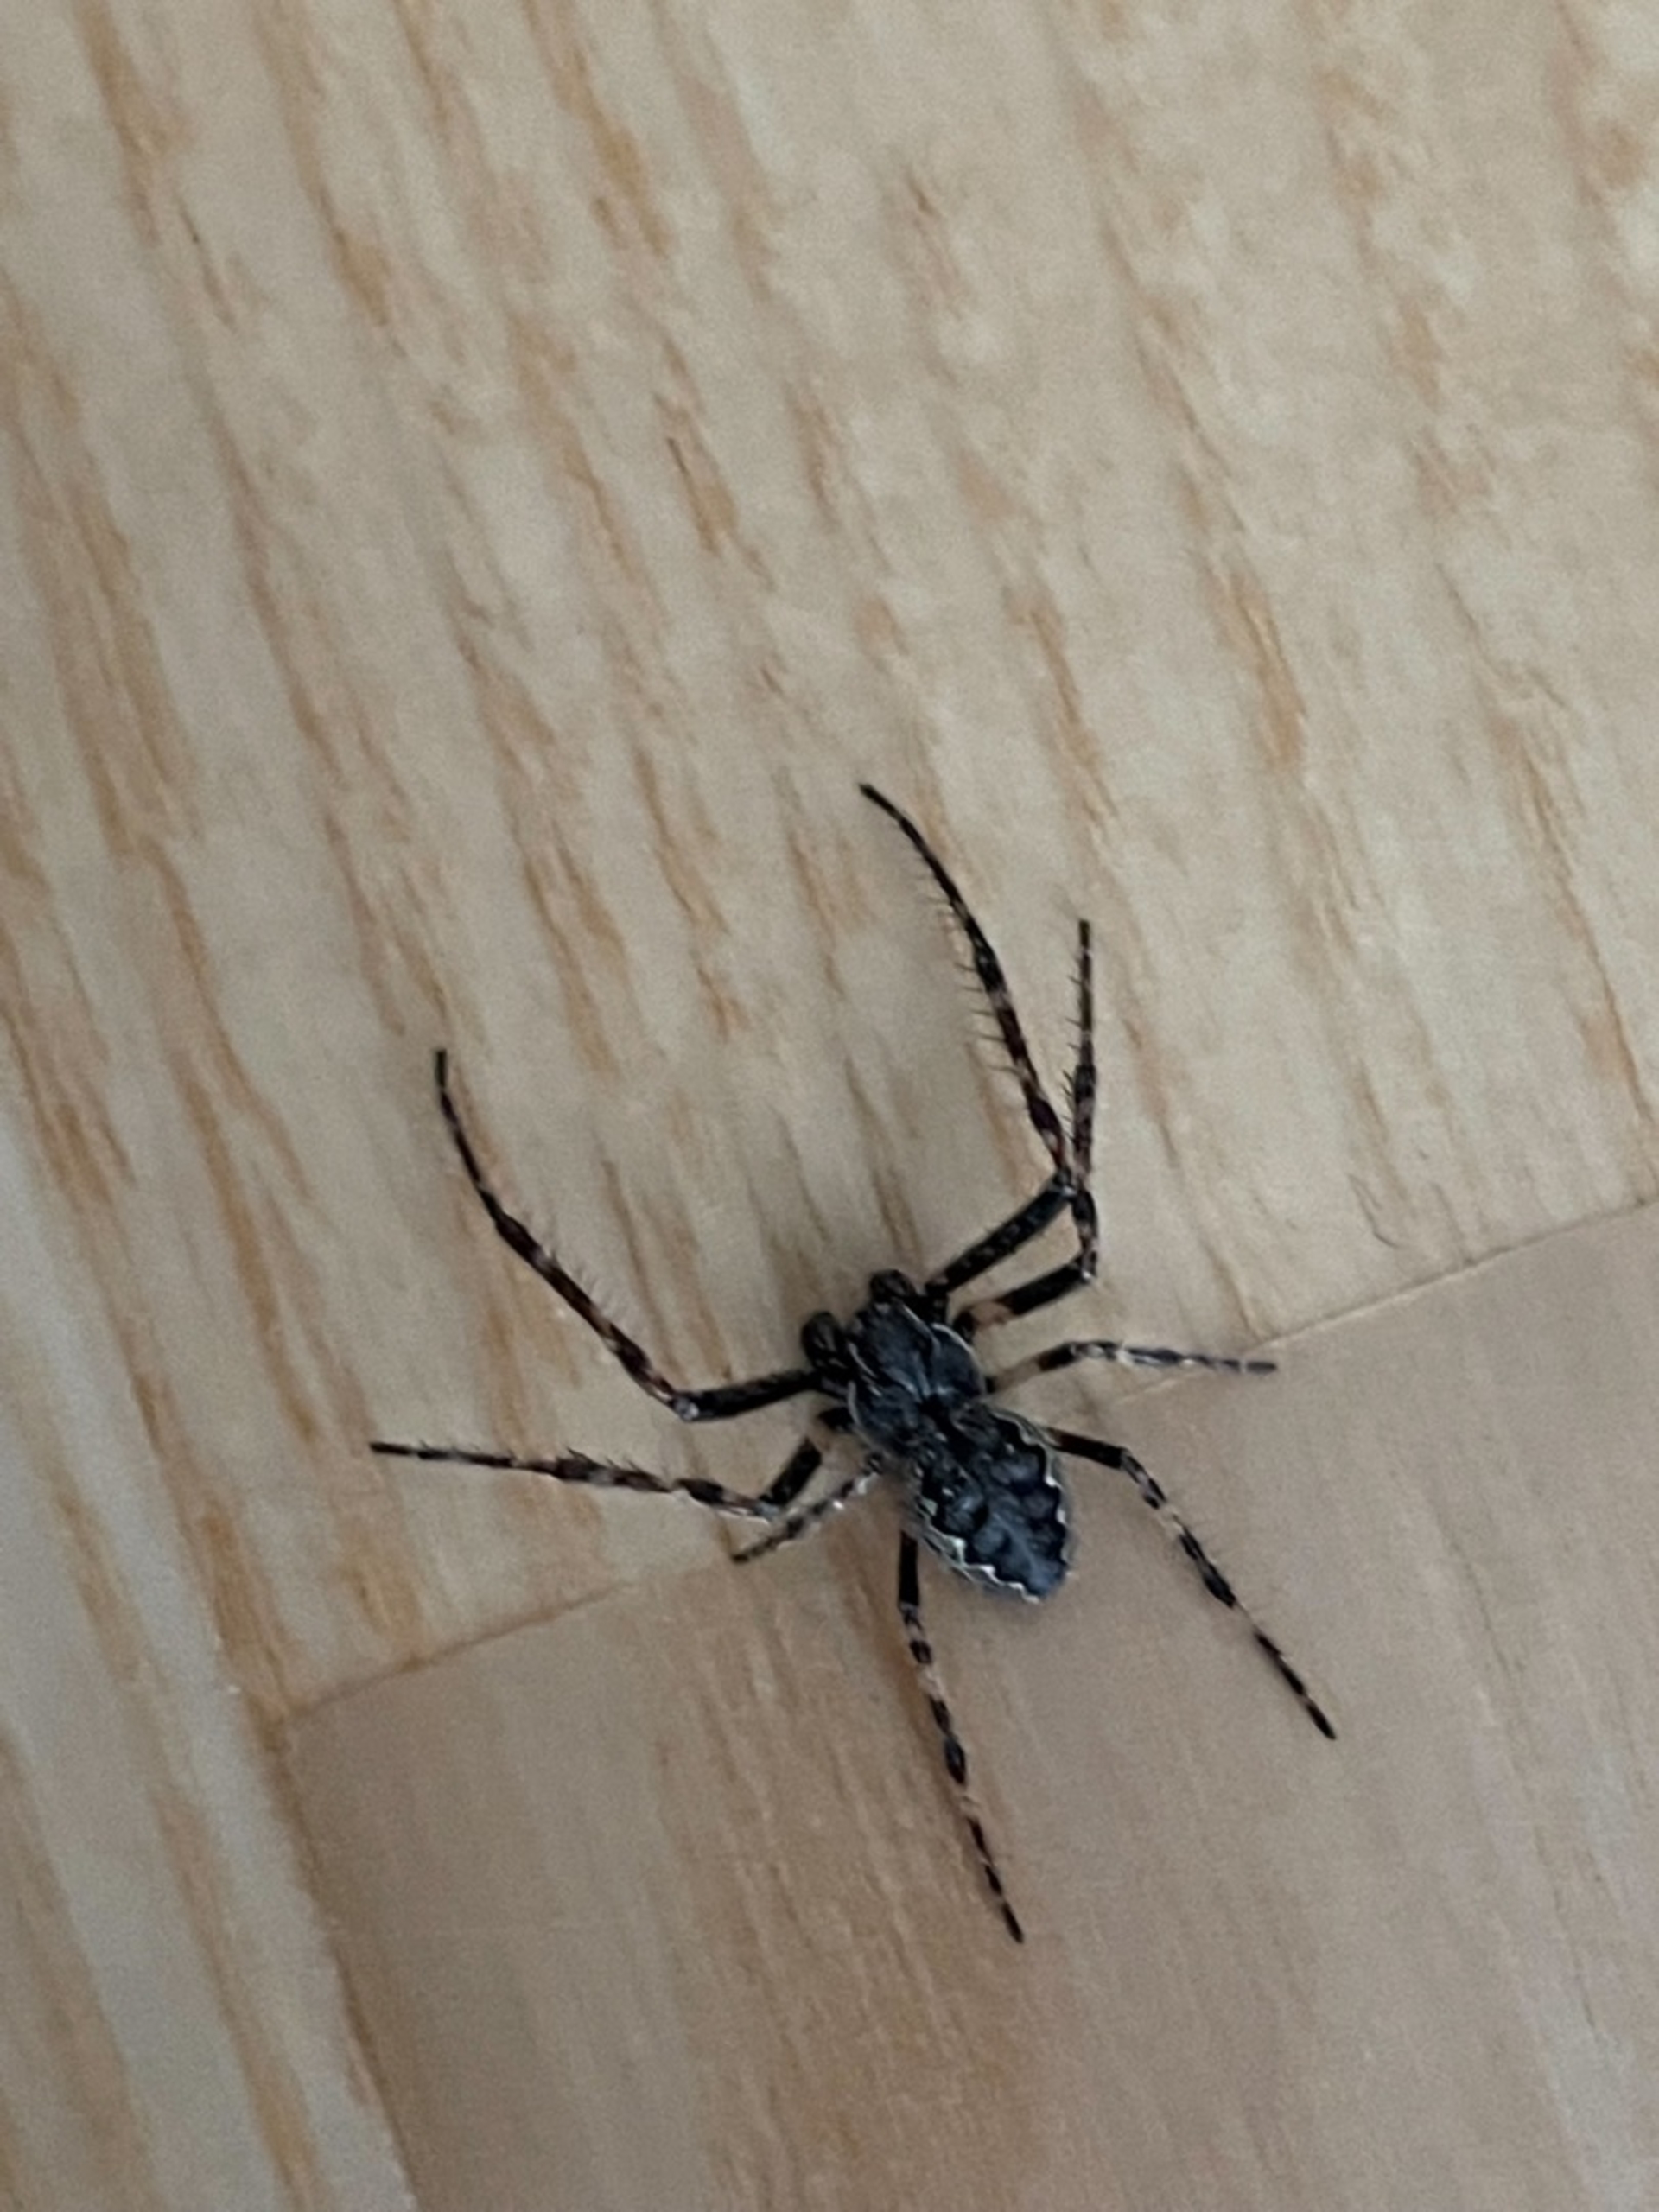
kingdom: Animalia
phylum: Arthropoda
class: Arachnida
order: Araneae
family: Araneidae
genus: Nuctenea
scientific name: Nuctenea umbratica
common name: Flad hjulspinder
